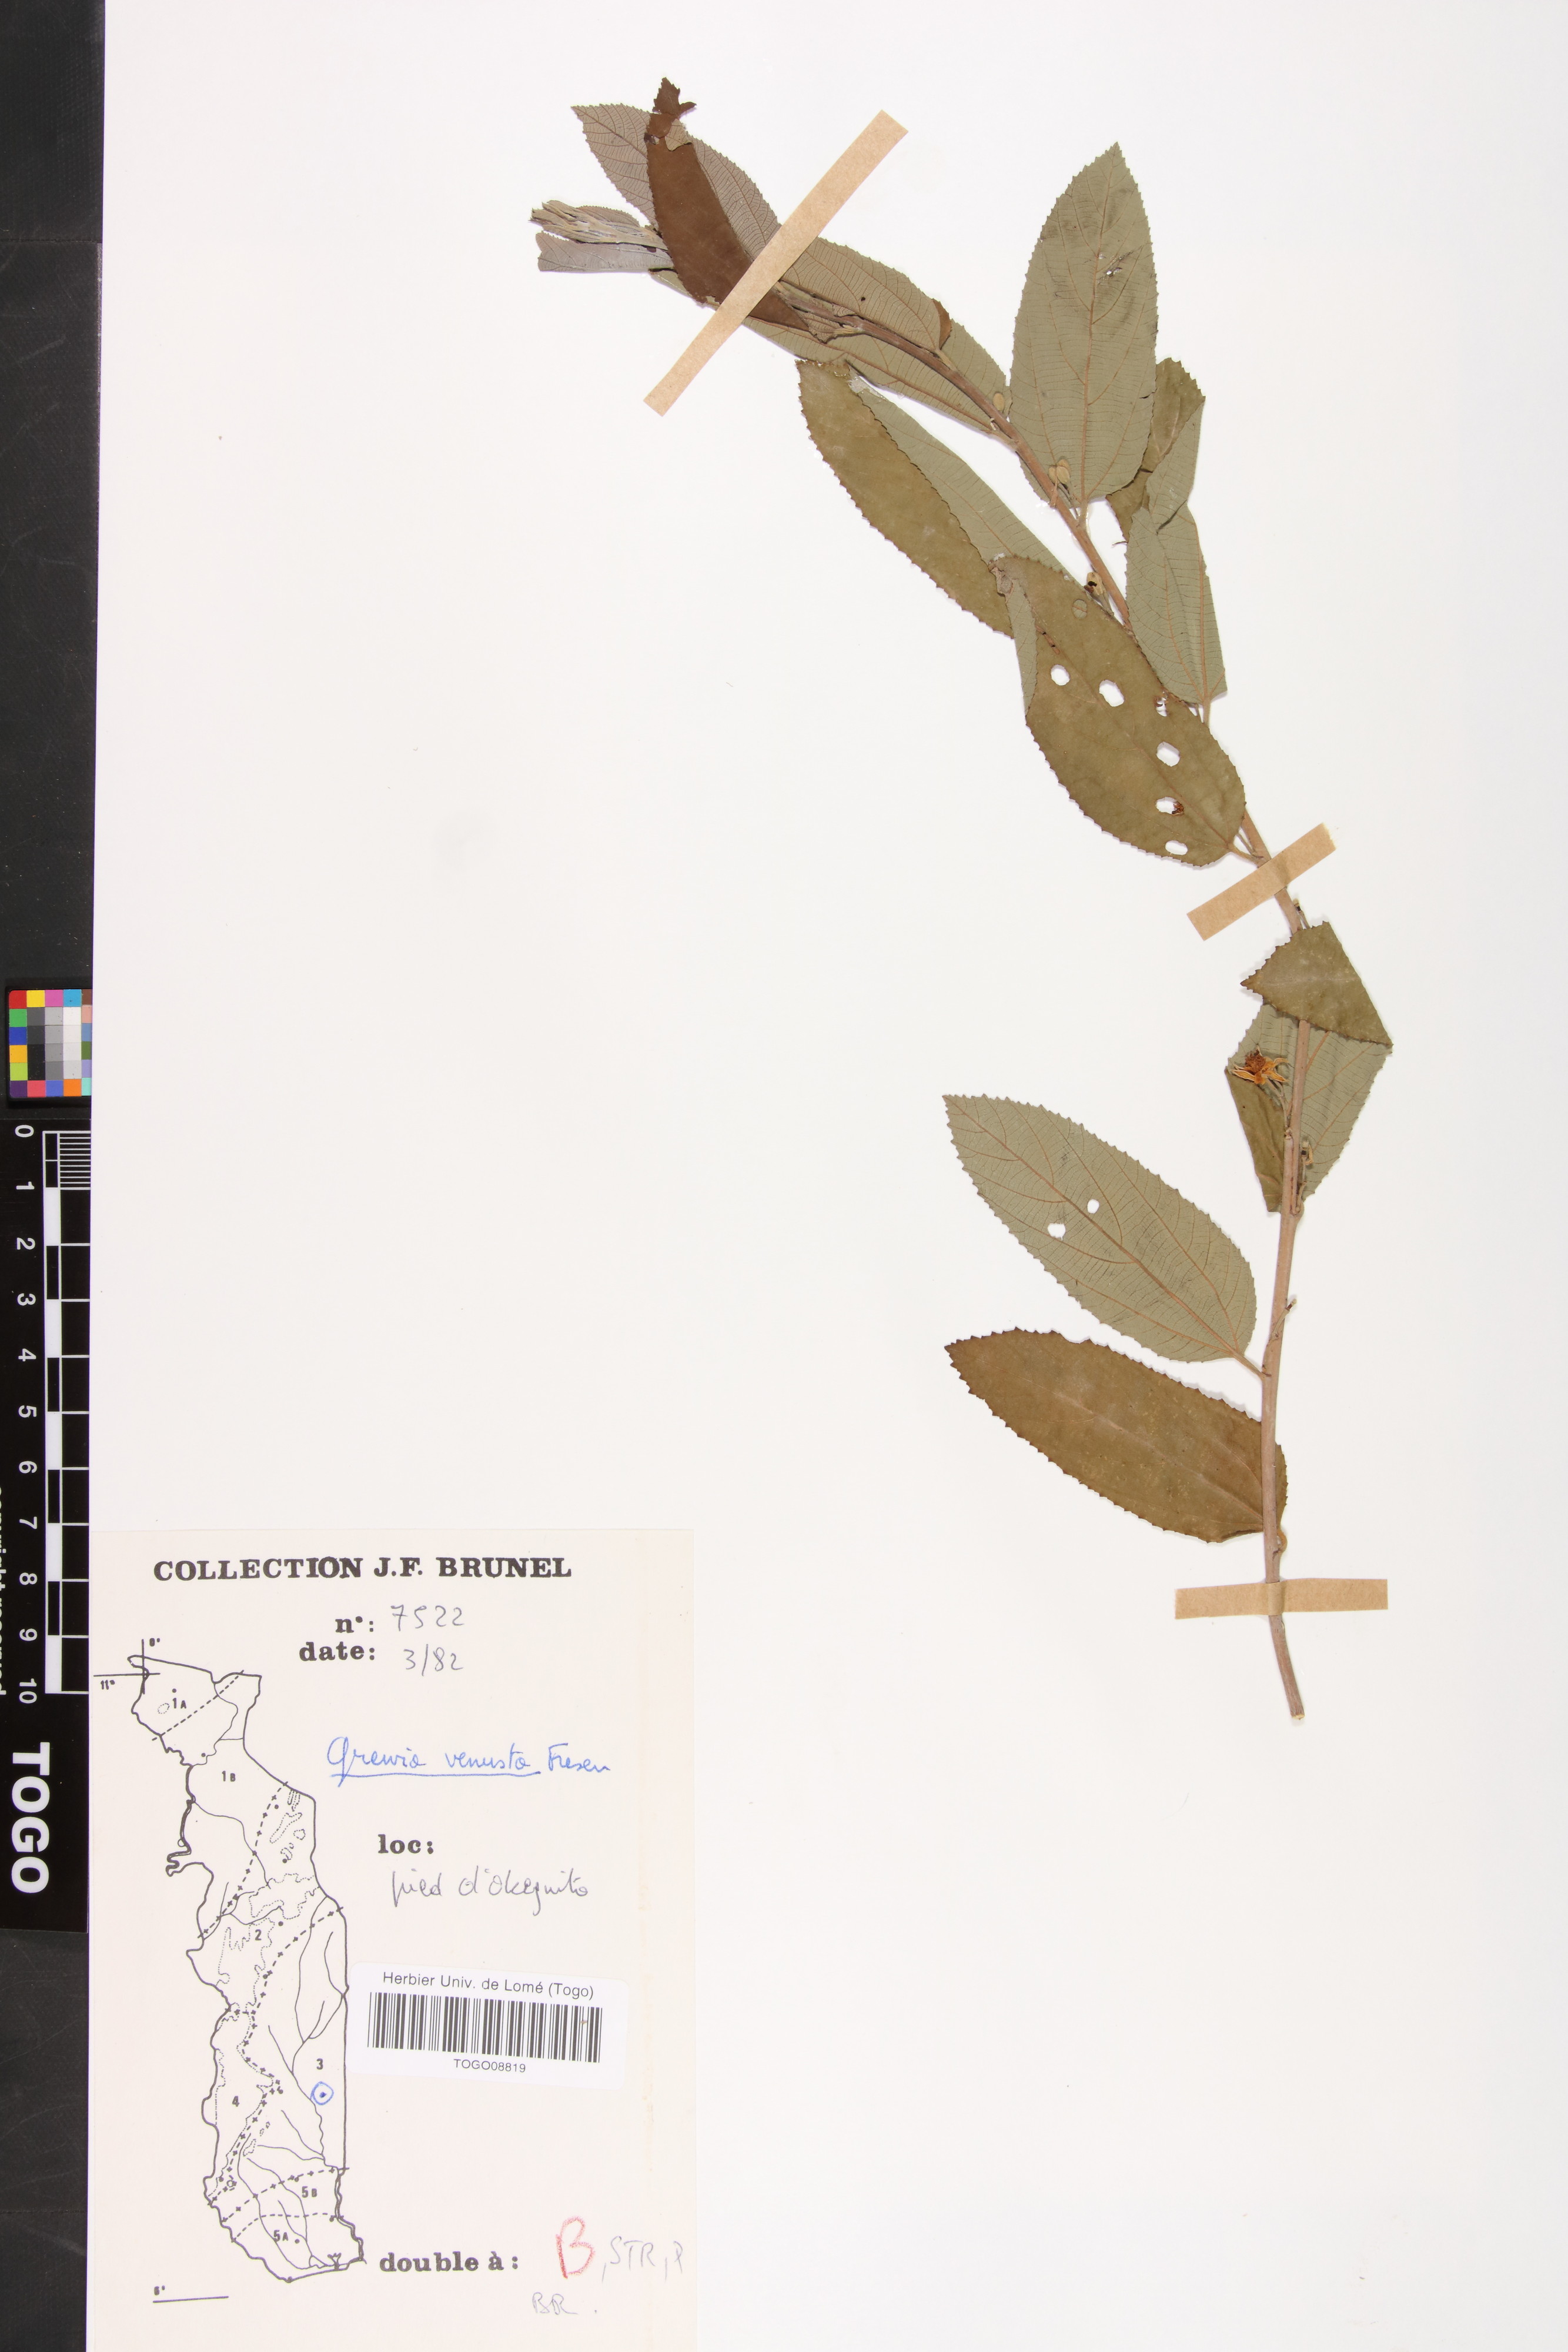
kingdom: Plantae
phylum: Tracheophyta
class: Magnoliopsida
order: Malvales
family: Malvaceae
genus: Grewia
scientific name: Grewia mollis
